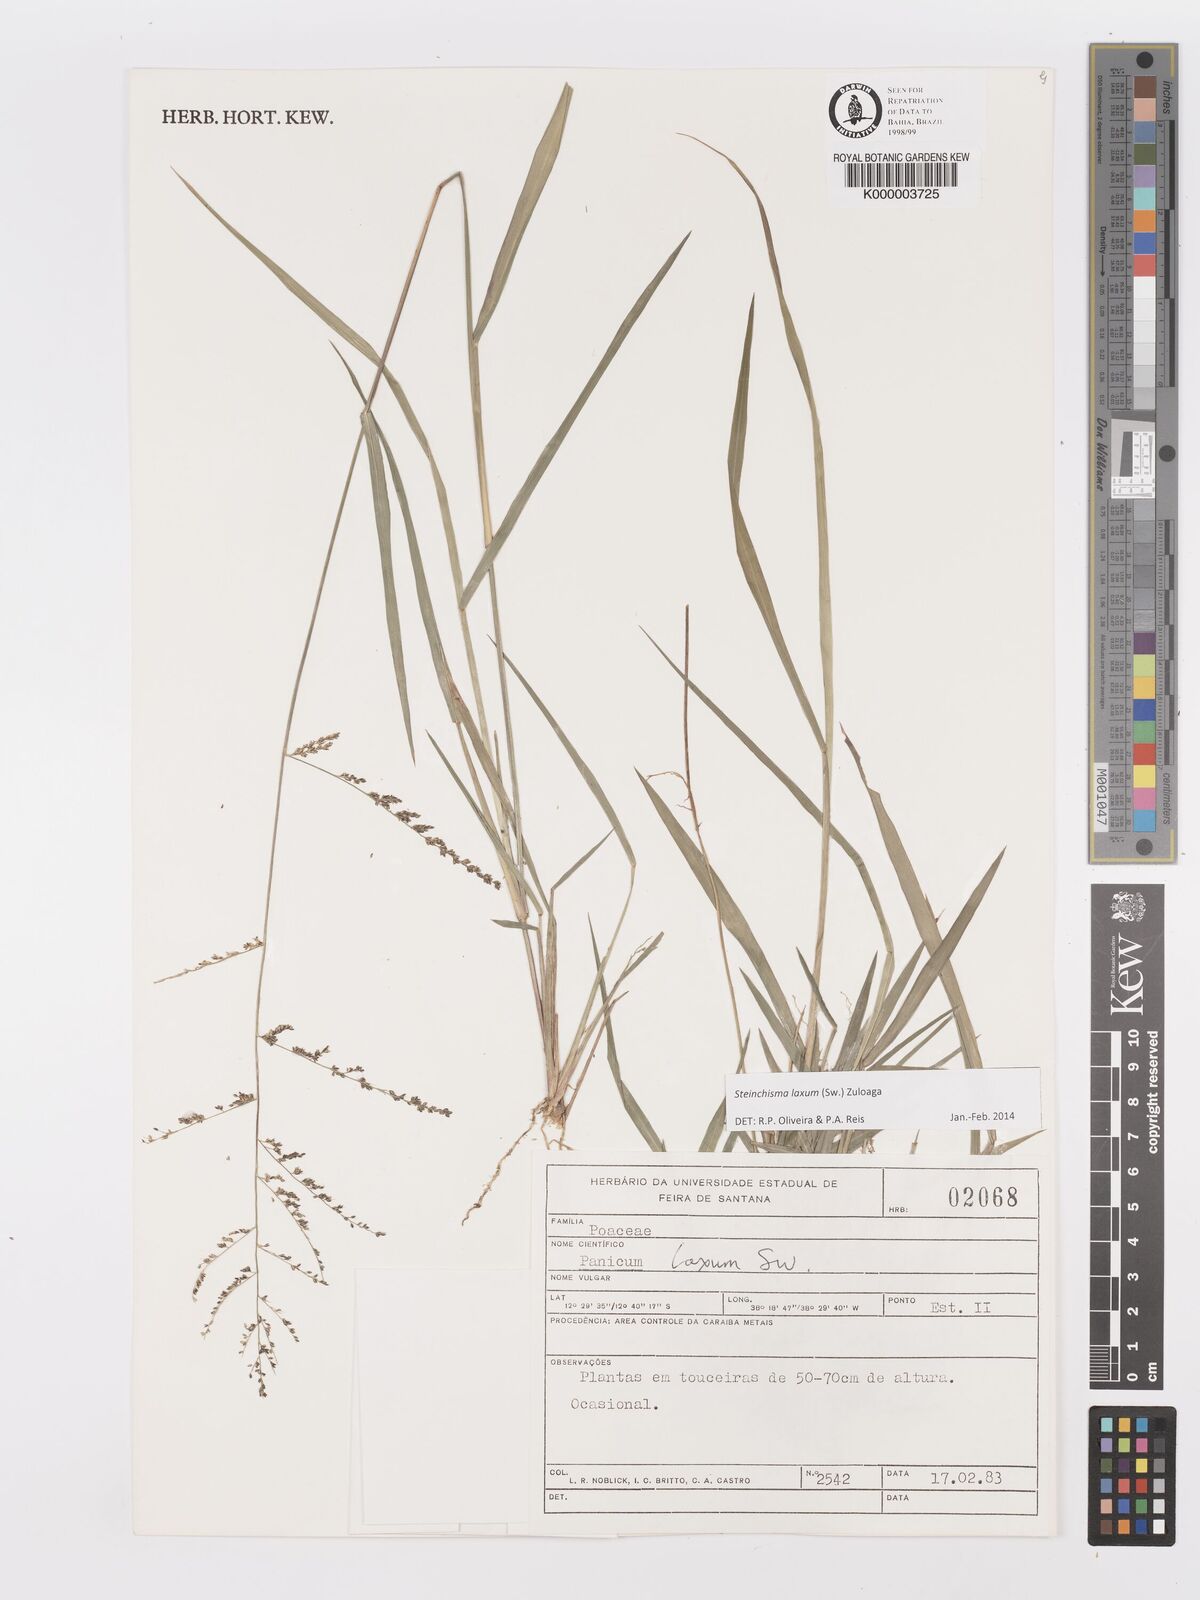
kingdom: Plantae
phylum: Tracheophyta
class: Liliopsida
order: Poales
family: Poaceae
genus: Panicum
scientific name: Panicum
